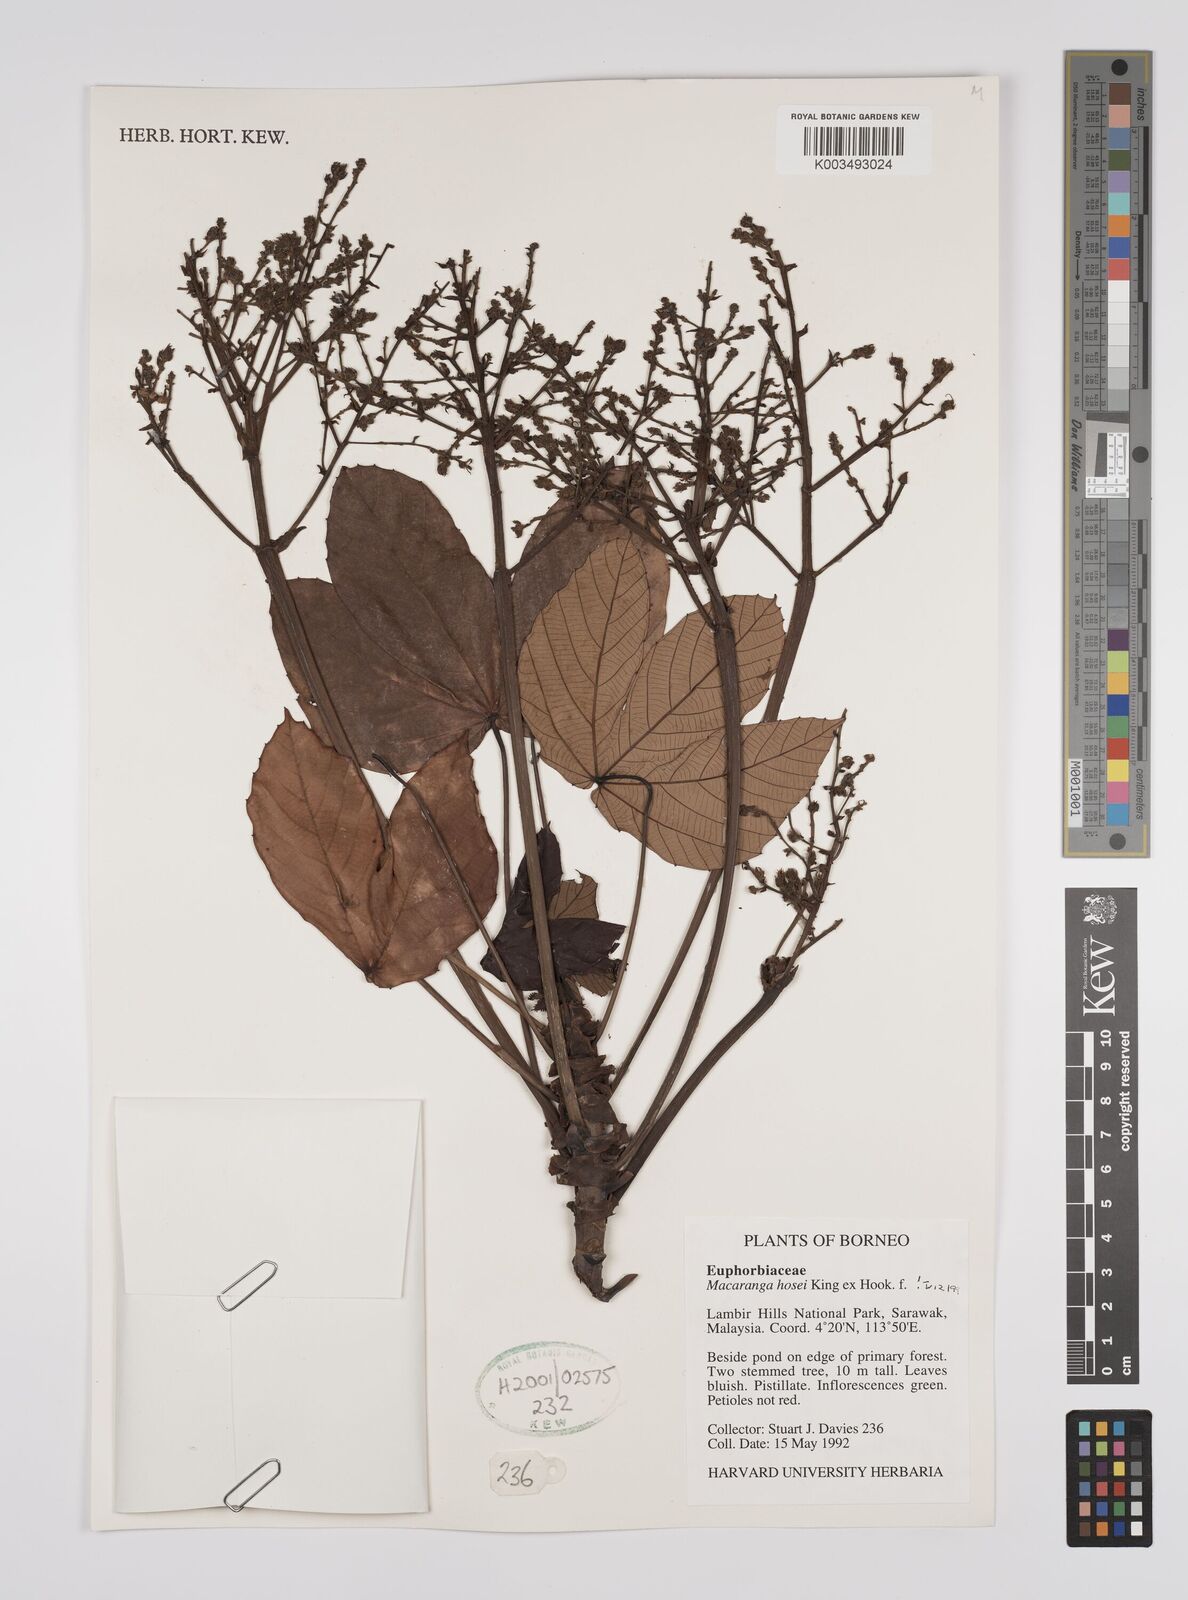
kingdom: Plantae
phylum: Tracheophyta
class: Magnoliopsida
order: Malpighiales
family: Euphorbiaceae
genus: Macaranga
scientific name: Macaranga hosei
